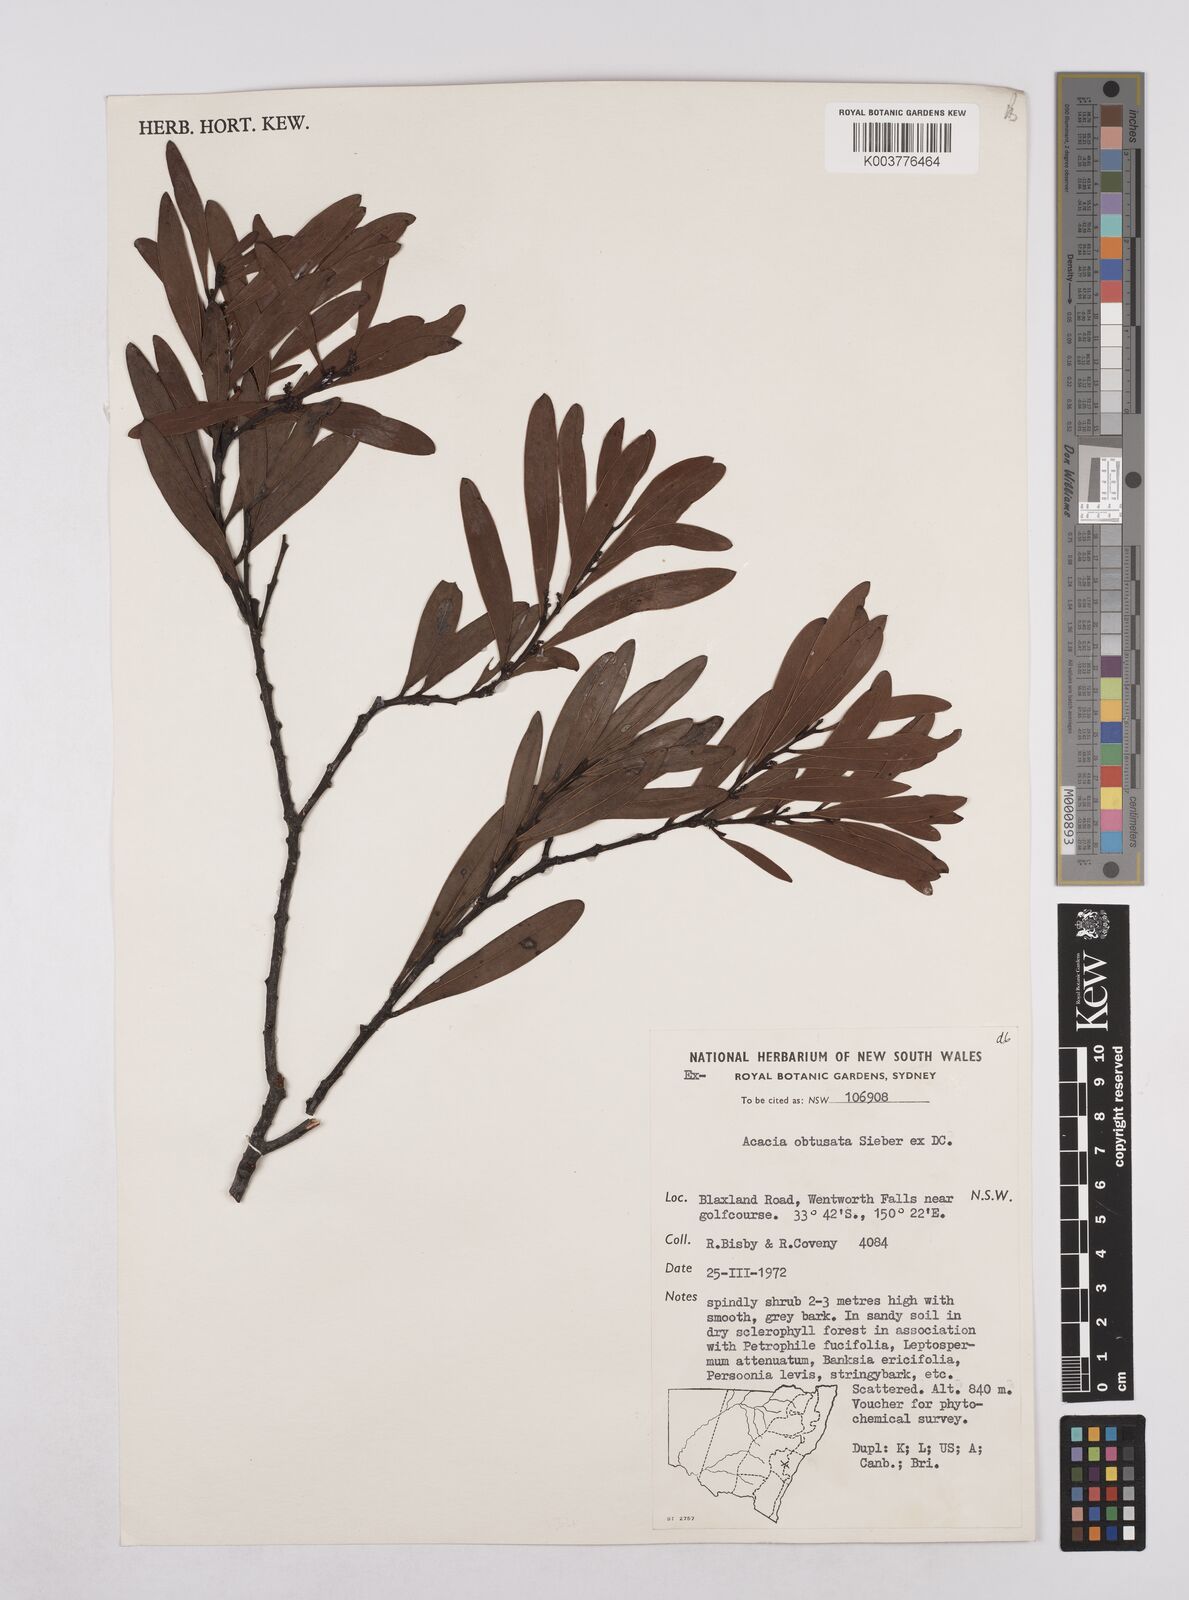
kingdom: Plantae
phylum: Tracheophyta
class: Magnoliopsida
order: Fabales
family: Fabaceae
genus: Acacia
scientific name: Acacia obtusata
